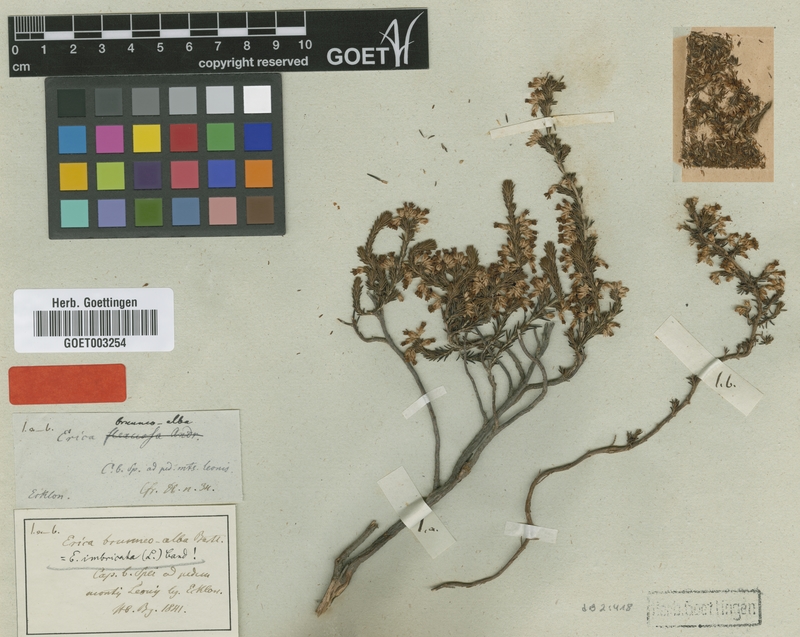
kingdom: Plantae
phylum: Tracheophyta
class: Magnoliopsida
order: Ericales
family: Ericaceae
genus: Erica
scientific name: Erica imbricata
